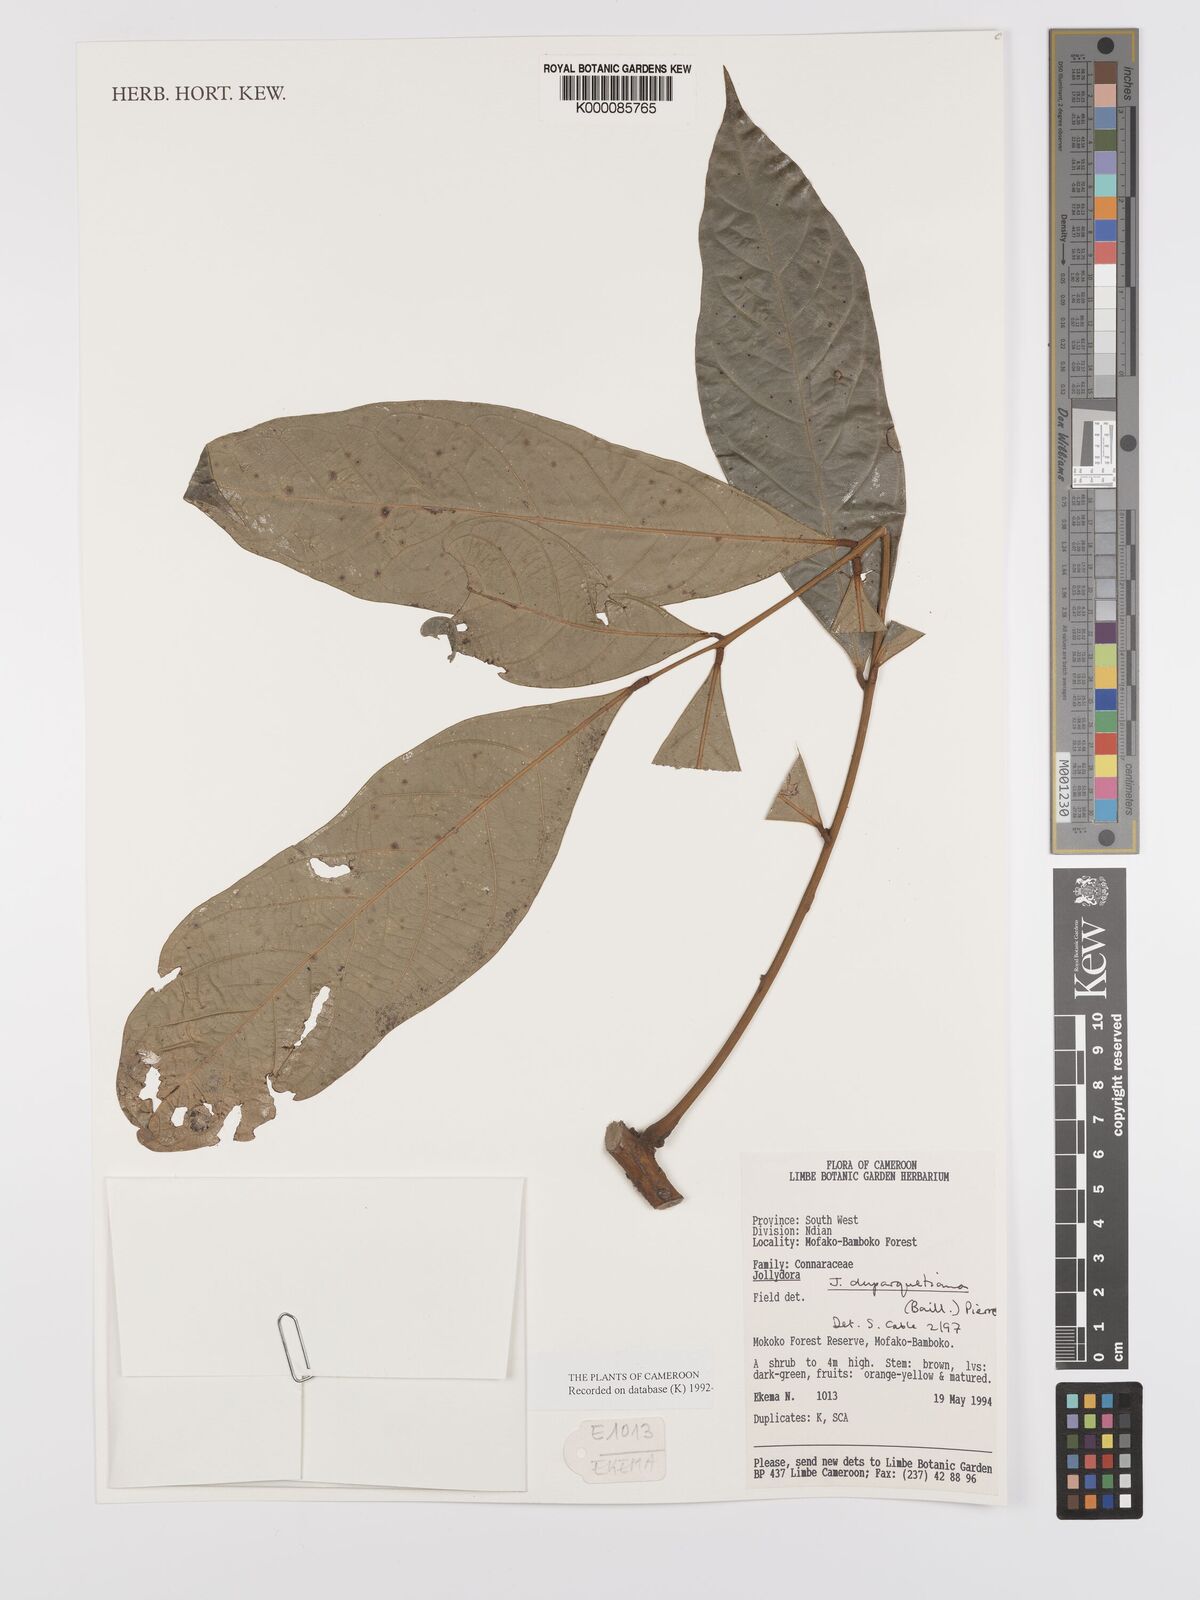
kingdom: Plantae
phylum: Tracheophyta
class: Magnoliopsida
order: Oxalidales
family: Connaraceae
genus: Jollydora
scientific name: Jollydora duparquetiana
